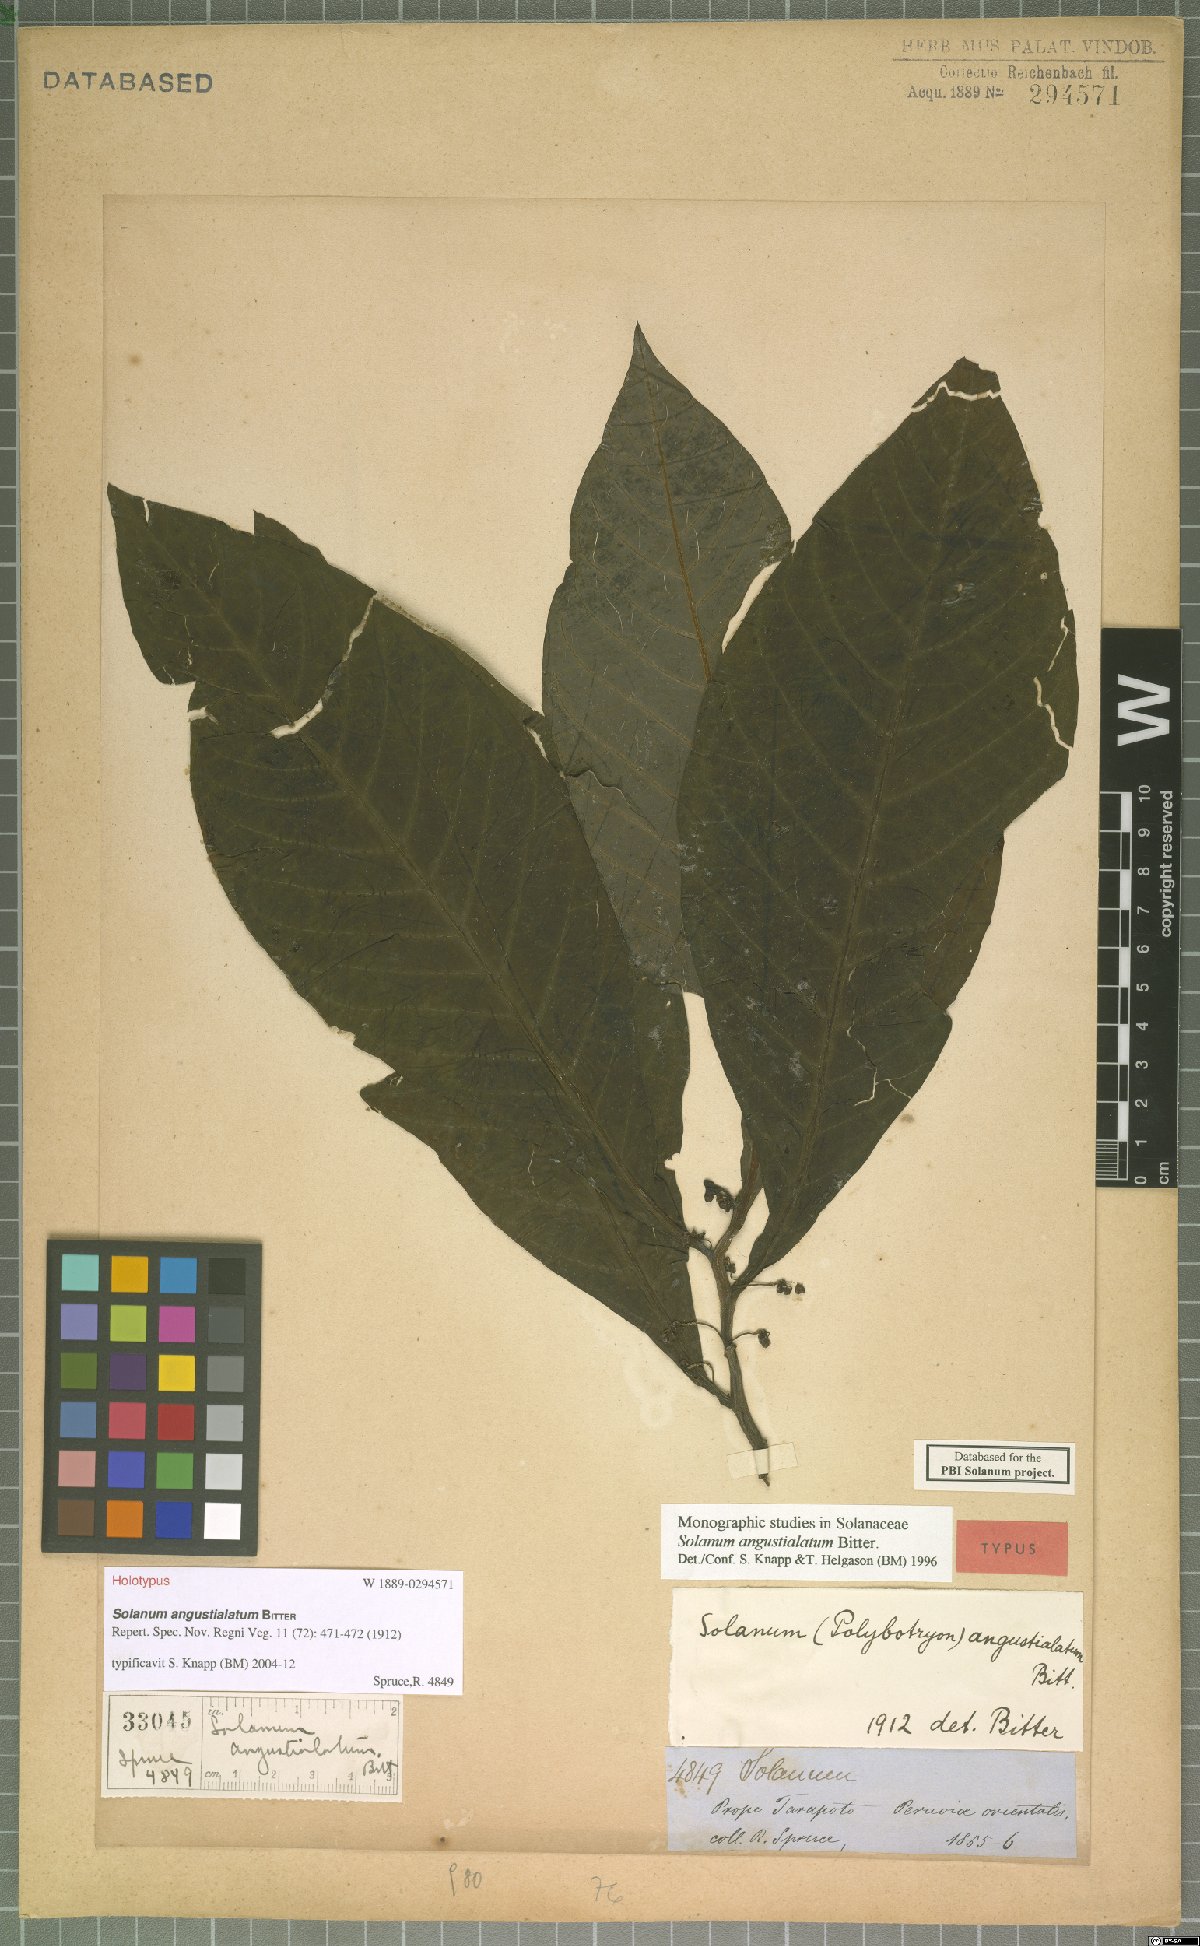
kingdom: Plantae
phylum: Tracheophyta
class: Magnoliopsida
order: Solanales
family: Solanaceae
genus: Solanum
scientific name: Solanum angustialatum
